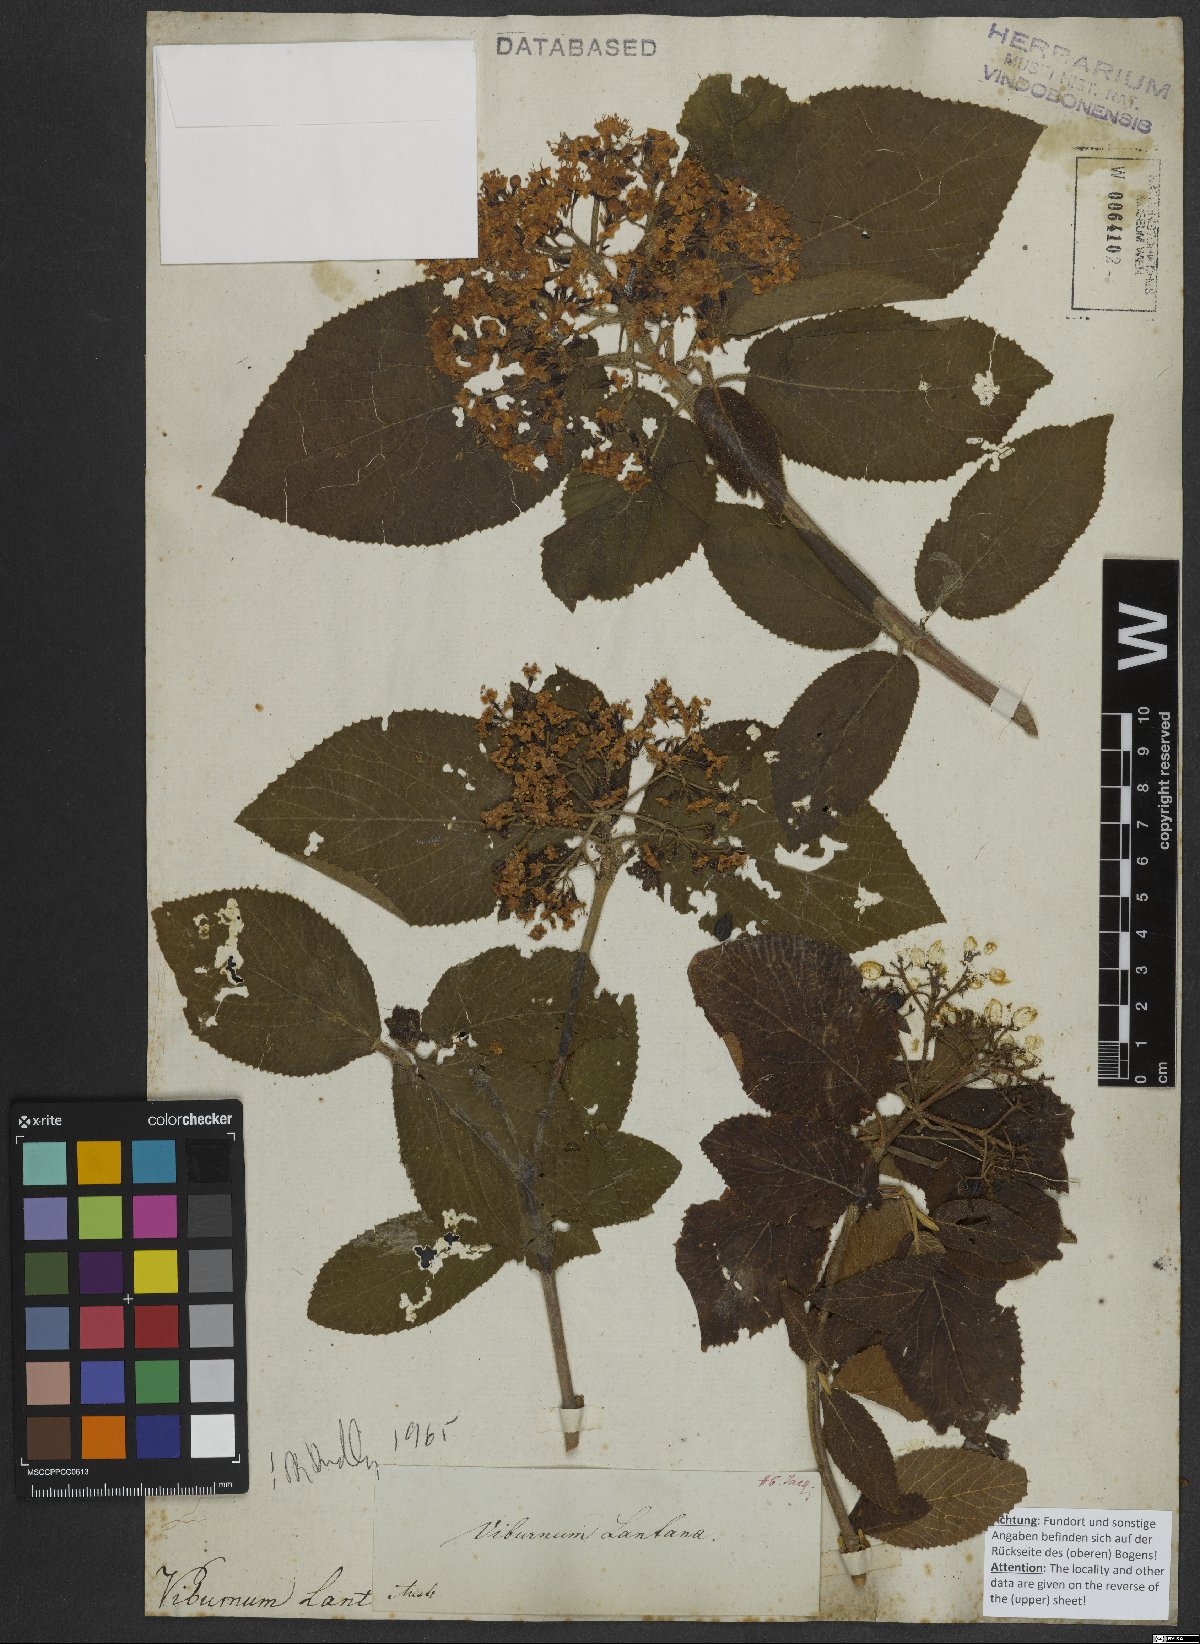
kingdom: Plantae
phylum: Tracheophyta
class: Magnoliopsida
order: Dipsacales
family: Viburnaceae
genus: Viburnum
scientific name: Viburnum lantana
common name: Wayfaring tree
